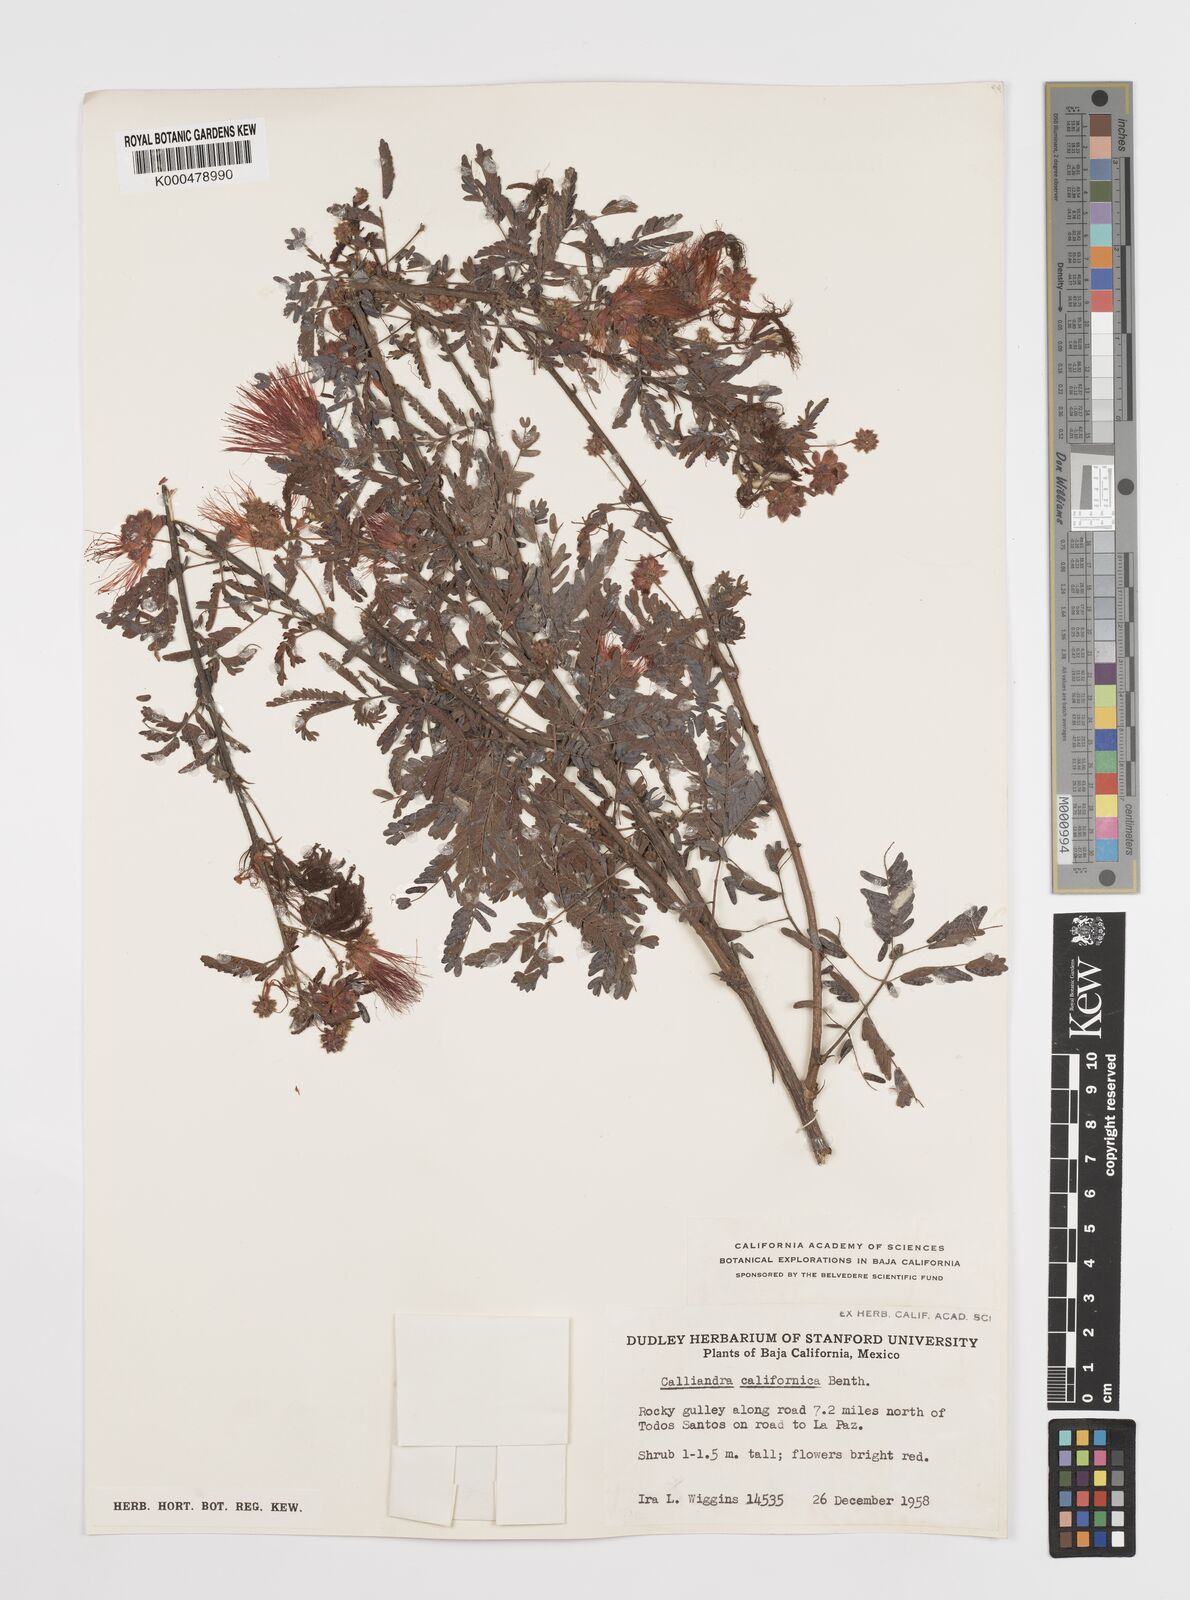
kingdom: Plantae
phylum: Tracheophyta
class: Magnoliopsida
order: Fabales
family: Fabaceae
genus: Calliandra
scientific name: Calliandra californica
